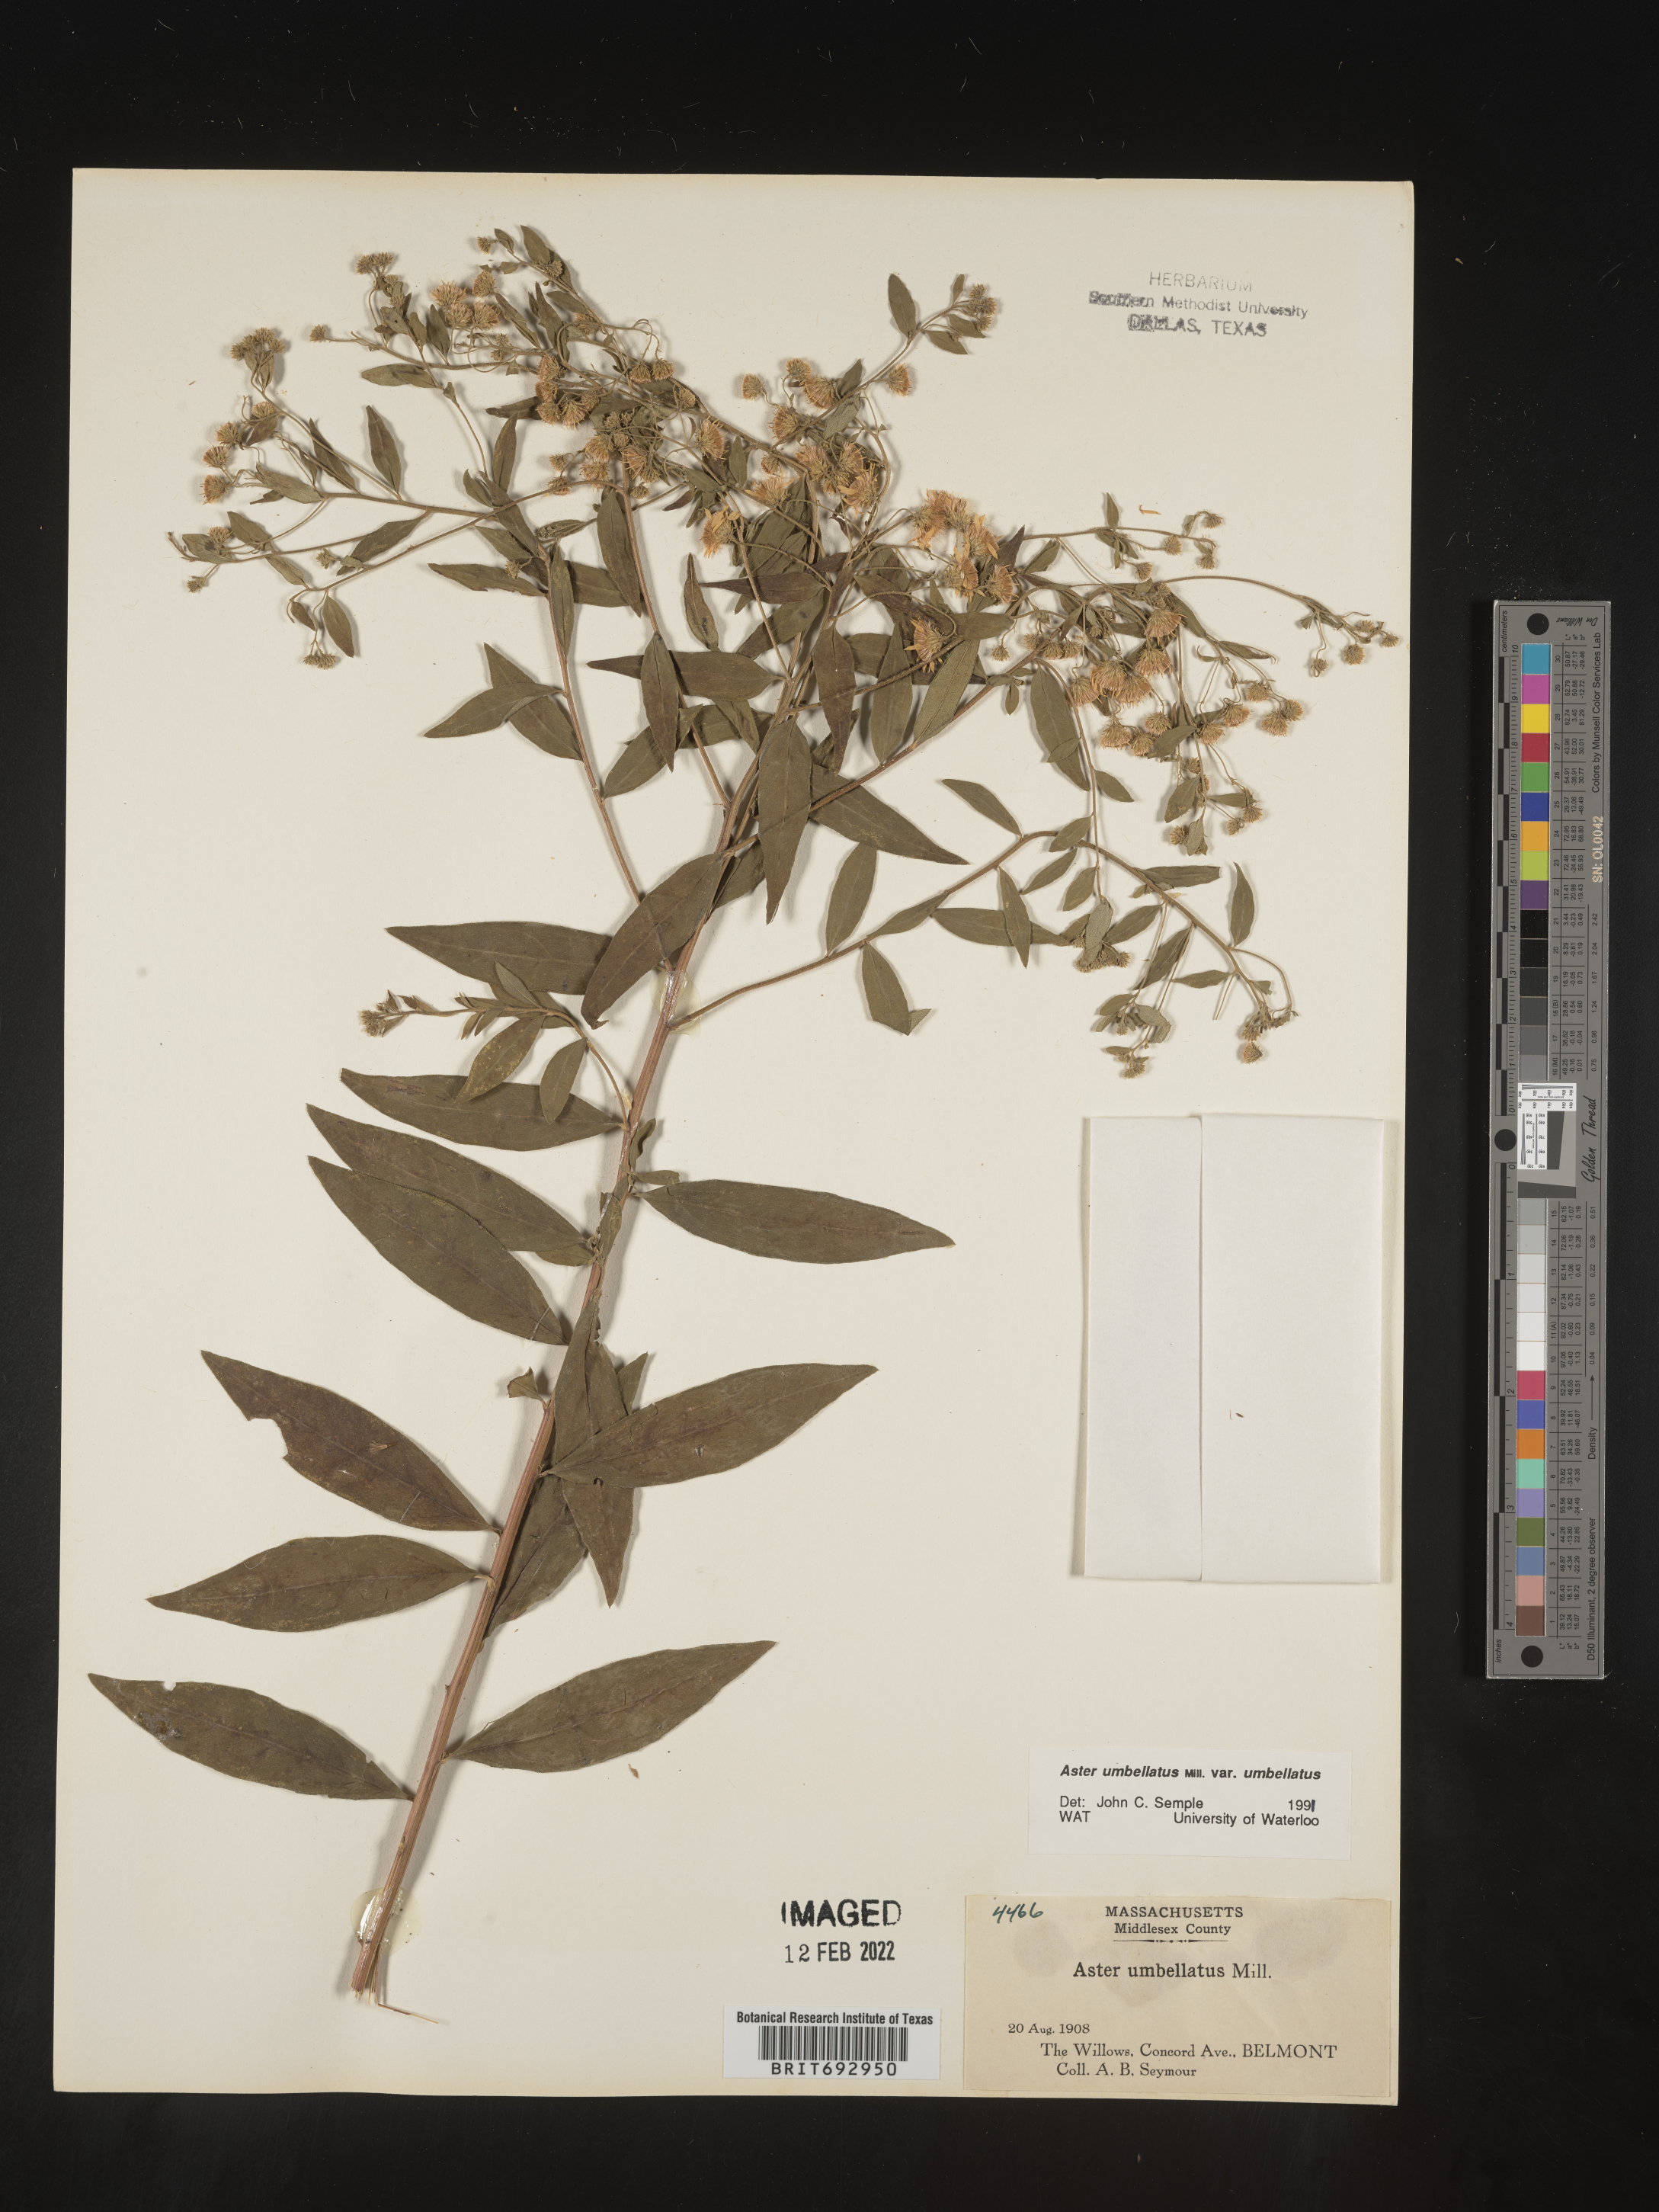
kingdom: Plantae
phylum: Tracheophyta
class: Magnoliopsida
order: Asterales
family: Asteraceae
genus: Doellingeria
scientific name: Doellingeria umbellata
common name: Flat-top white aster
